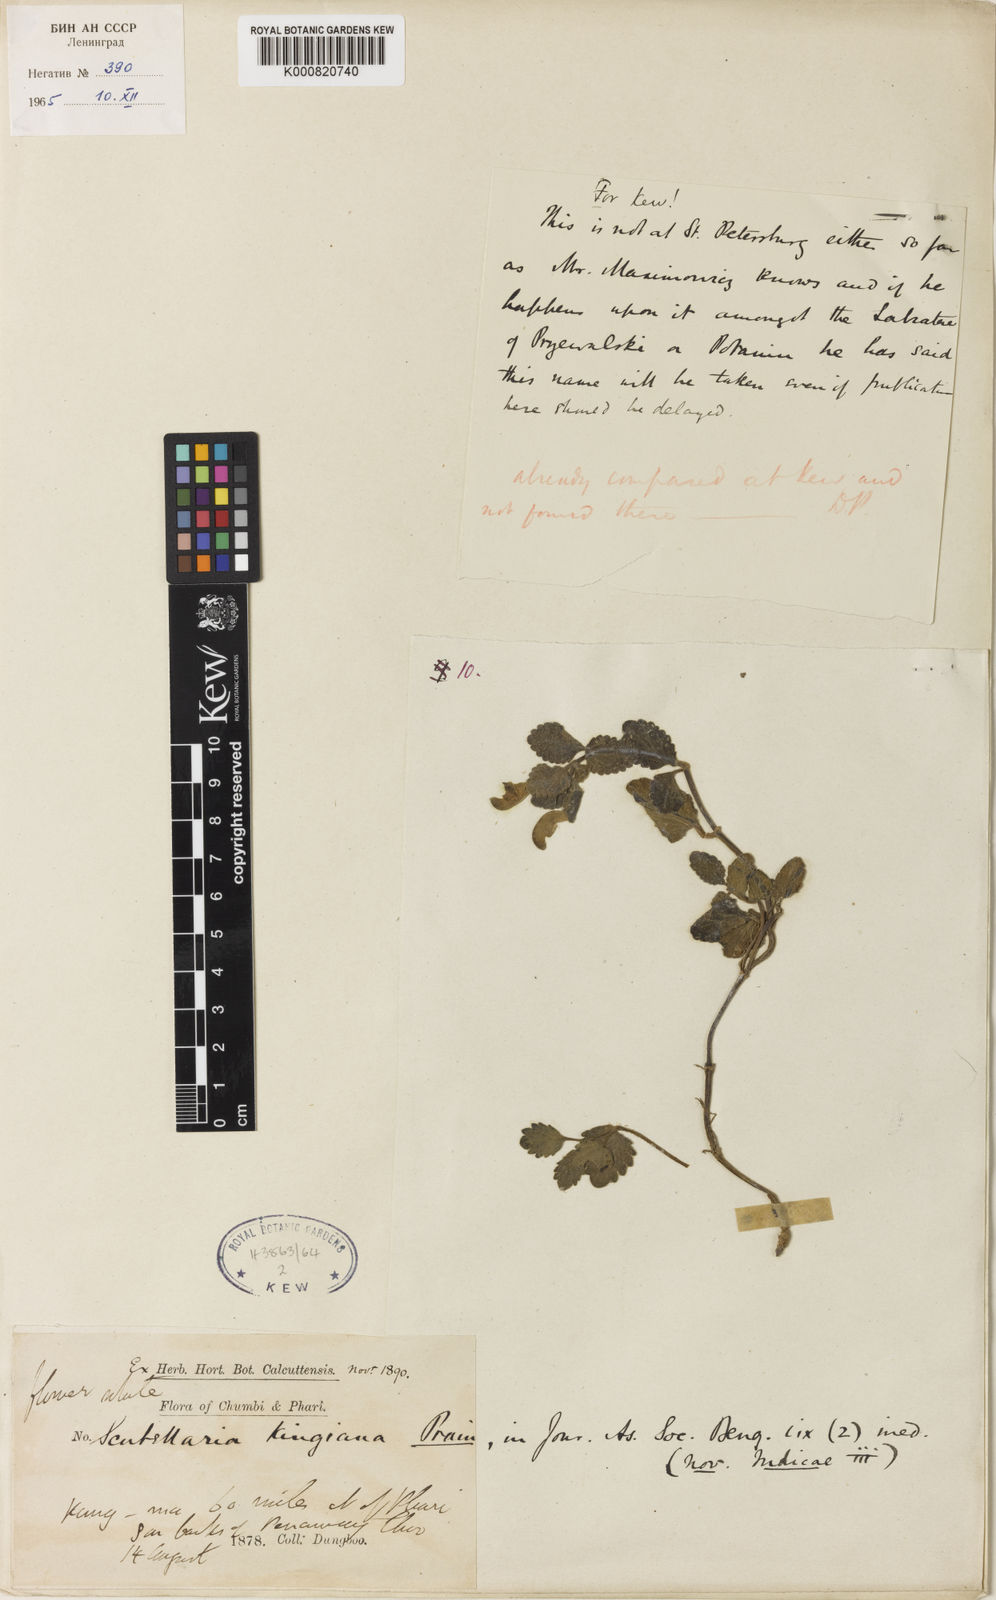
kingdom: Plantae
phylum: Tracheophyta
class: Magnoliopsida
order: Lamiales
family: Lamiaceae
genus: Scutellaria
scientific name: Scutellaria kingiana
